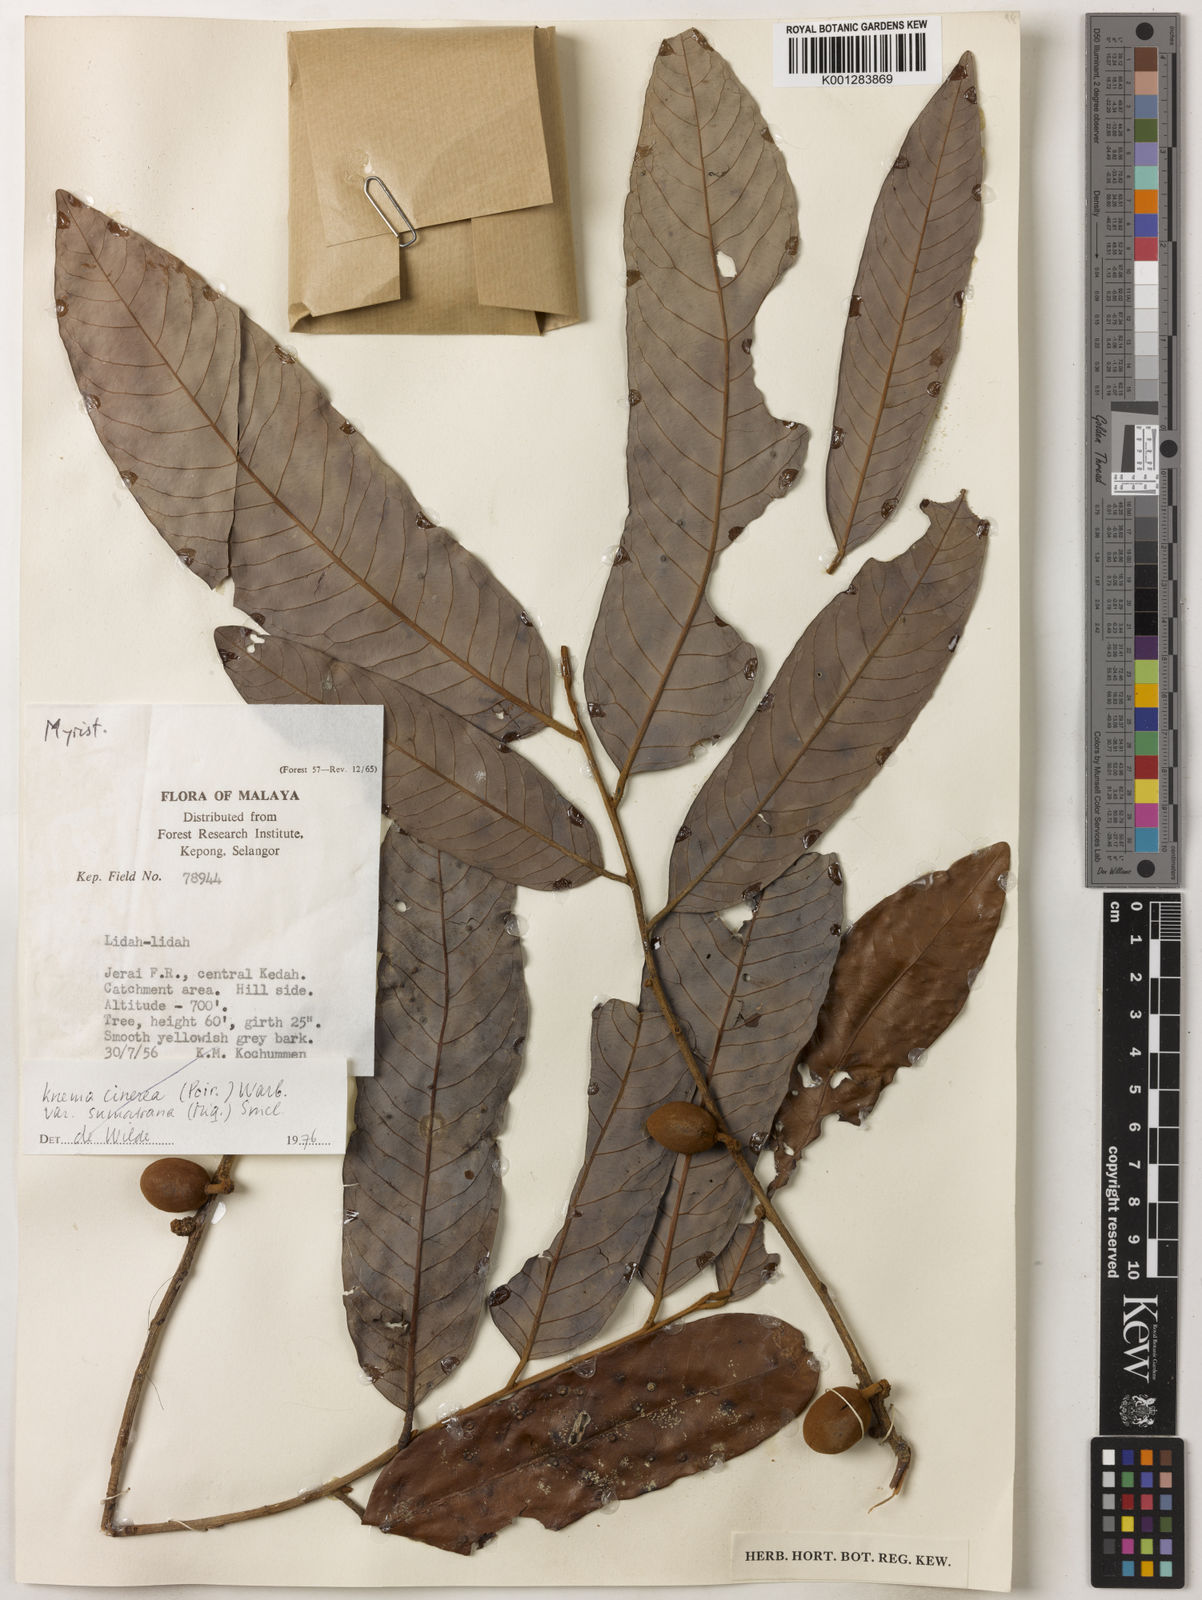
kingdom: Plantae
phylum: Tracheophyta
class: Magnoliopsida
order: Magnoliales
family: Myristicaceae
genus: Knema
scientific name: Knema
